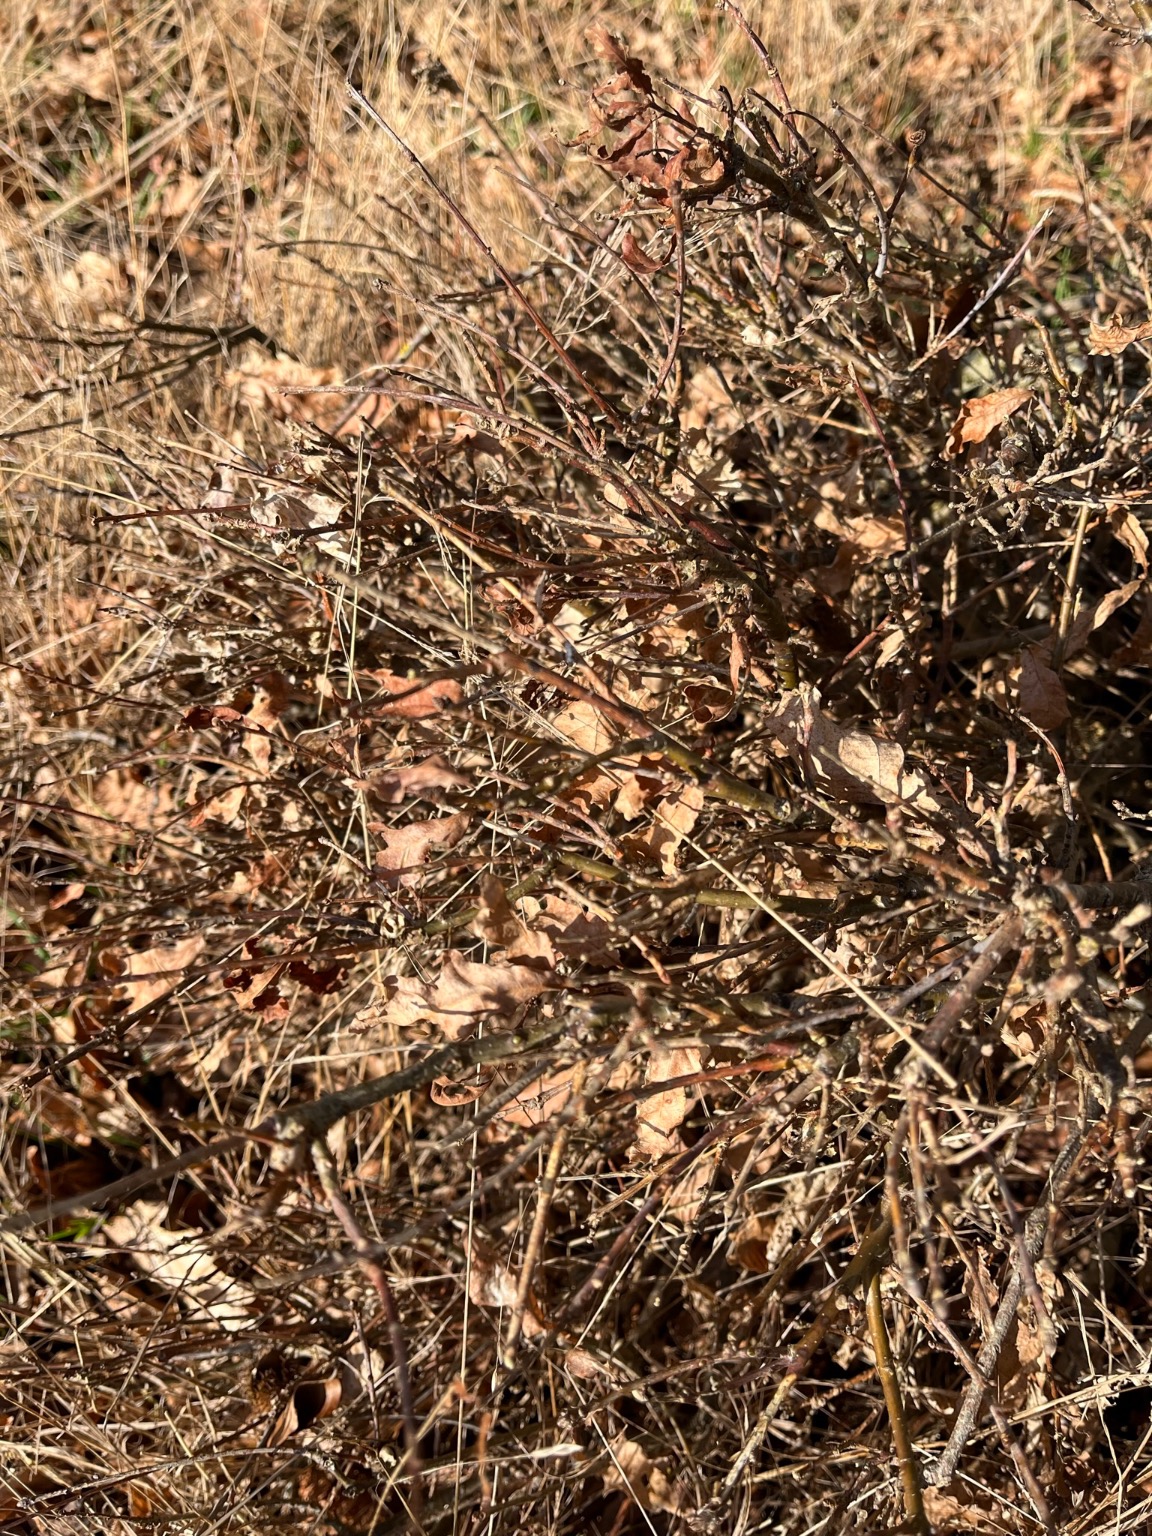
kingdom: Plantae
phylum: Tracheophyta
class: Magnoliopsida
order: Fagales
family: Fagaceae
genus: Quercus
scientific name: Quercus robur
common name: Stilk-eg/almindelig eg
